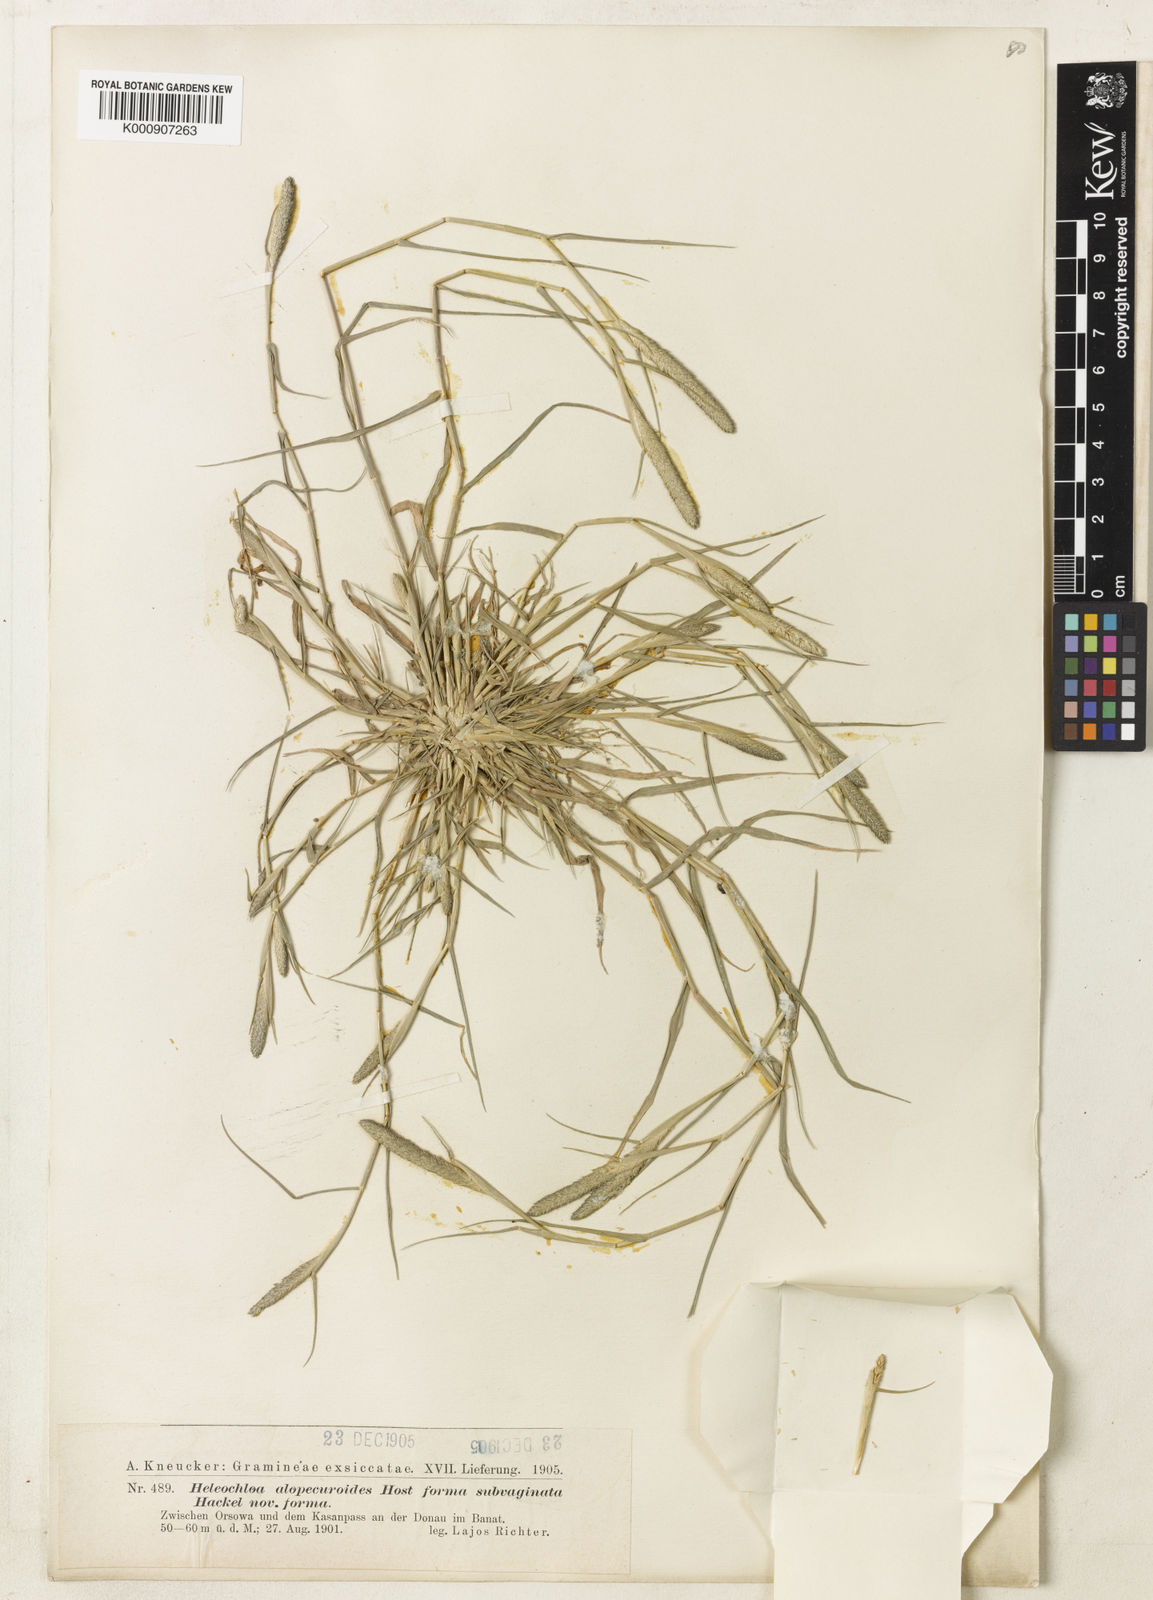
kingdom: Plantae
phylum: Tracheophyta
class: Liliopsida
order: Poales
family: Poaceae
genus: Sporobolus
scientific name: Sporobolus alopecuroides
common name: Foxtail pricklegrass
